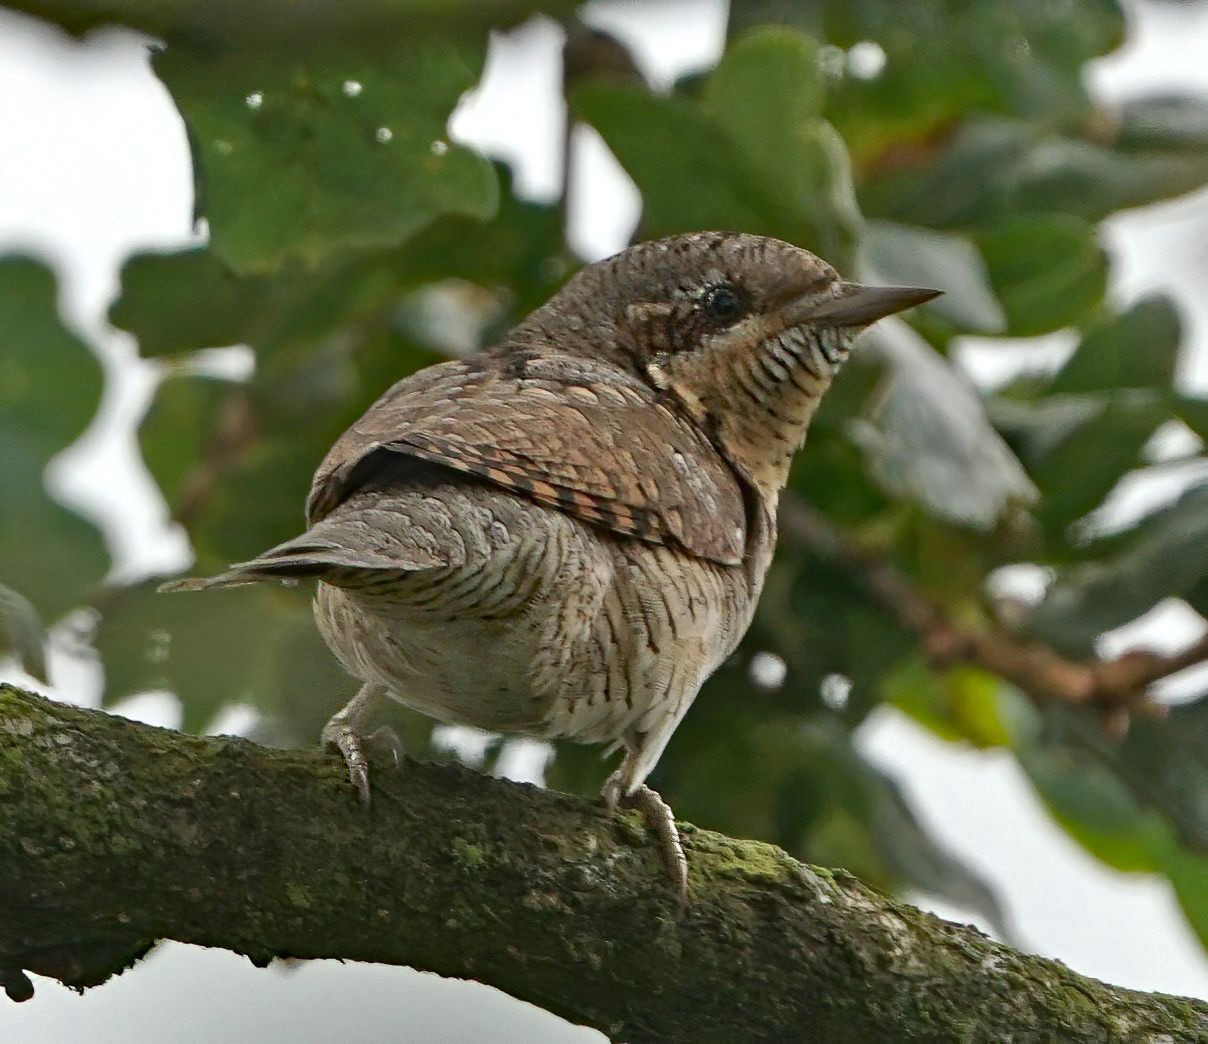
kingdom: Animalia
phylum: Chordata
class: Aves
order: Piciformes
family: Picidae
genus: Jynx
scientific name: Jynx torquilla
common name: Vendehals
